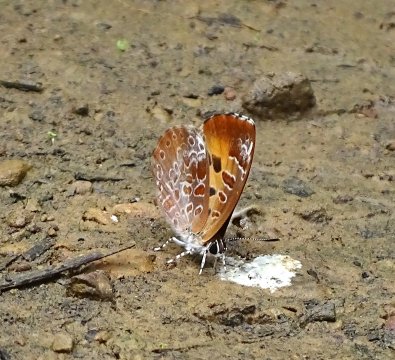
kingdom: Animalia
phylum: Arthropoda
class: Insecta
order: Lepidoptera
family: Lycaenidae
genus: Feniseca
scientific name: Feniseca tarquinius
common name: Harvester
